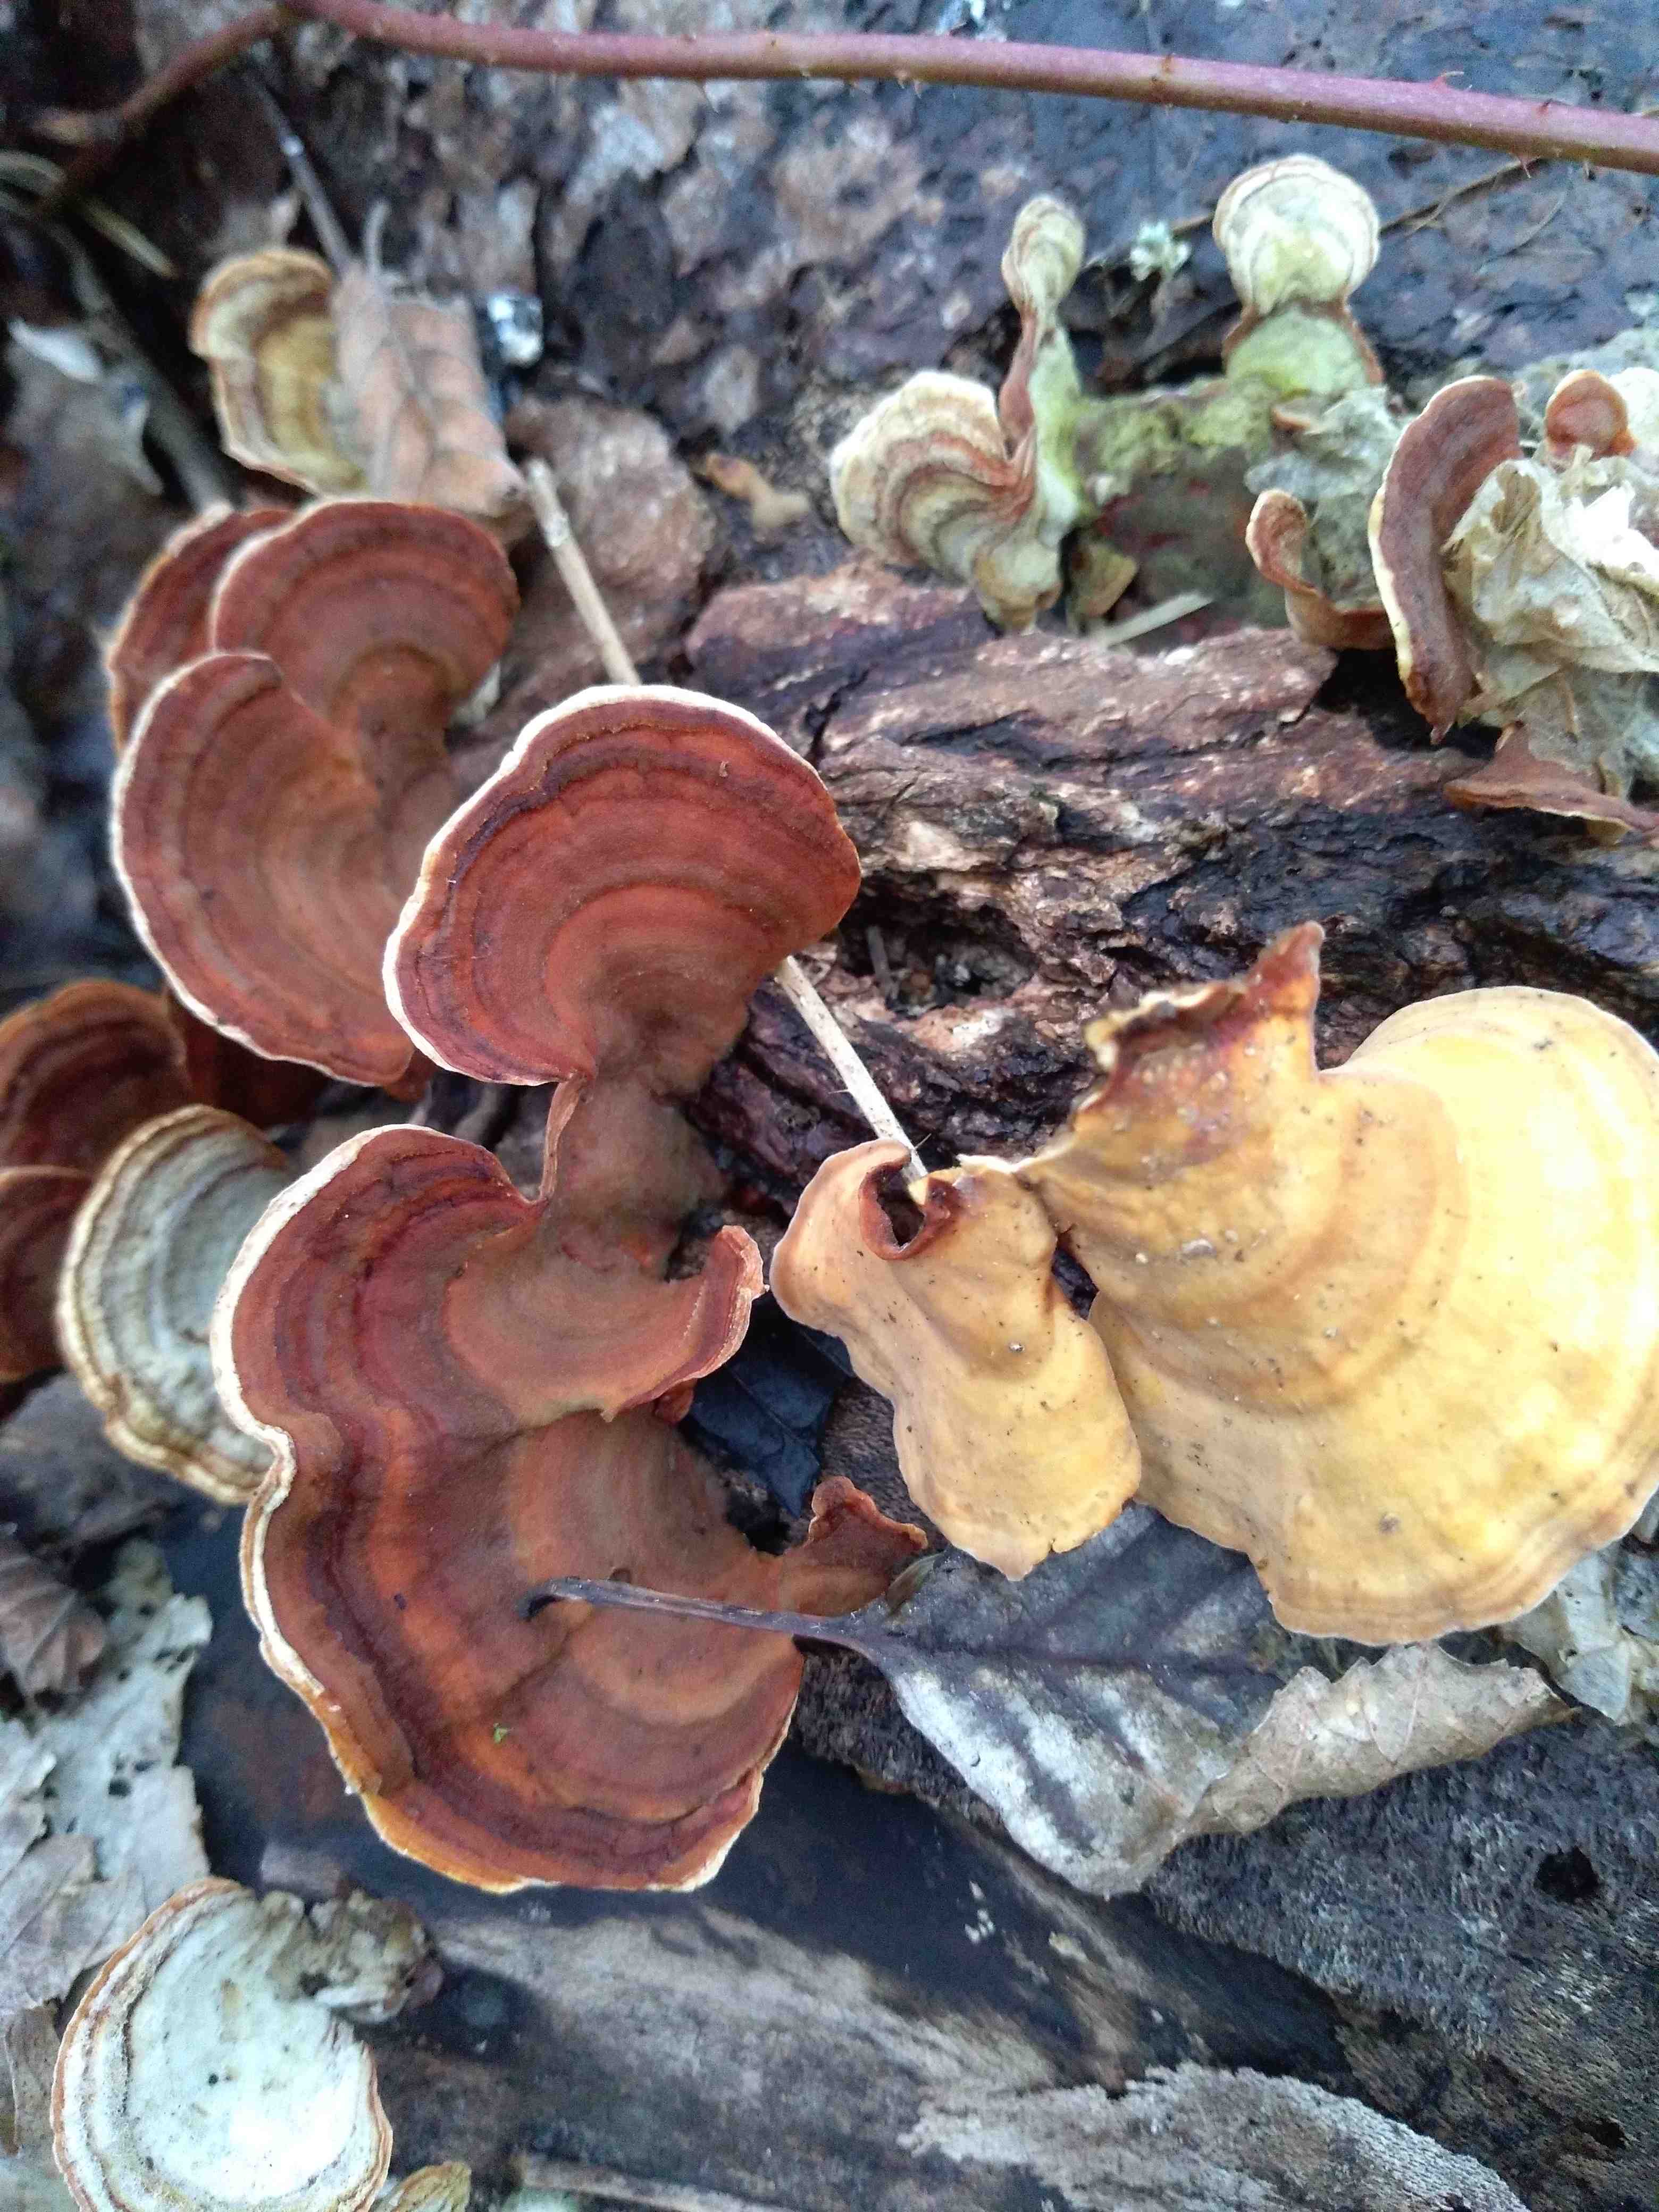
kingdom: Fungi
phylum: Basidiomycota
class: Agaricomycetes
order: Russulales
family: Stereaceae
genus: Stereum
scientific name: Stereum subtomentosum
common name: smuk lædersvamp
